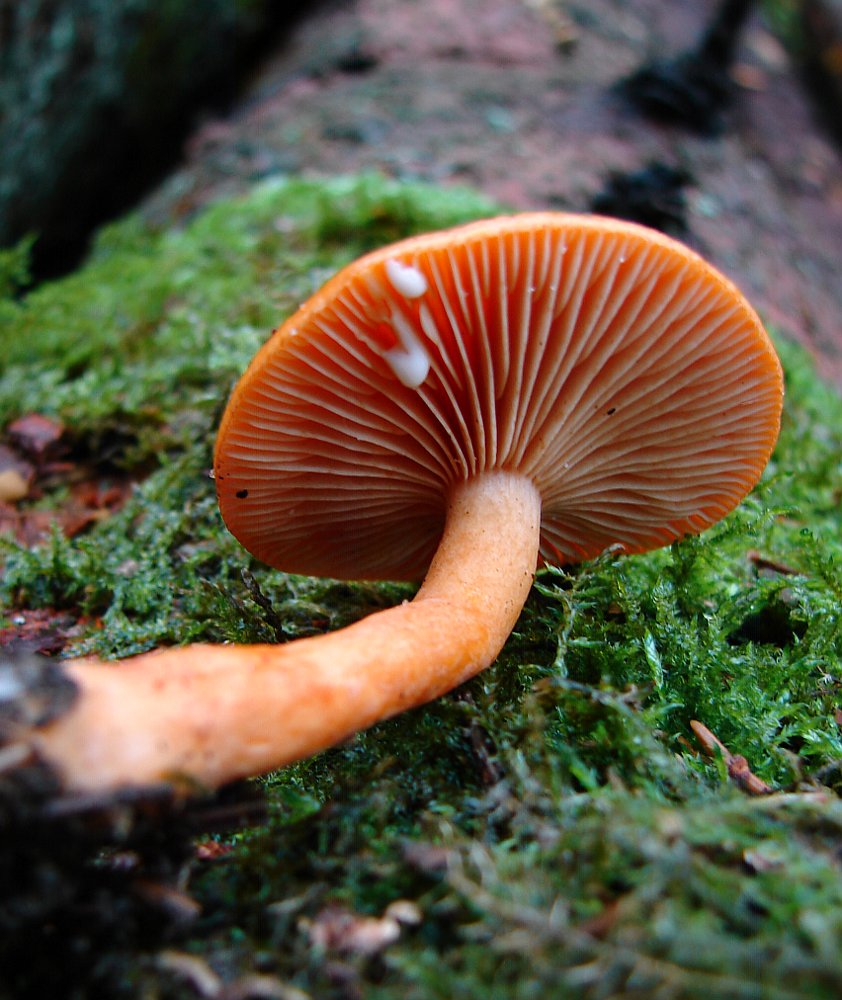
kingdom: Fungi
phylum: Basidiomycota
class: Agaricomycetes
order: Russulales
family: Russulaceae
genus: Lactarius
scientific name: Lactarius aurantiacus
